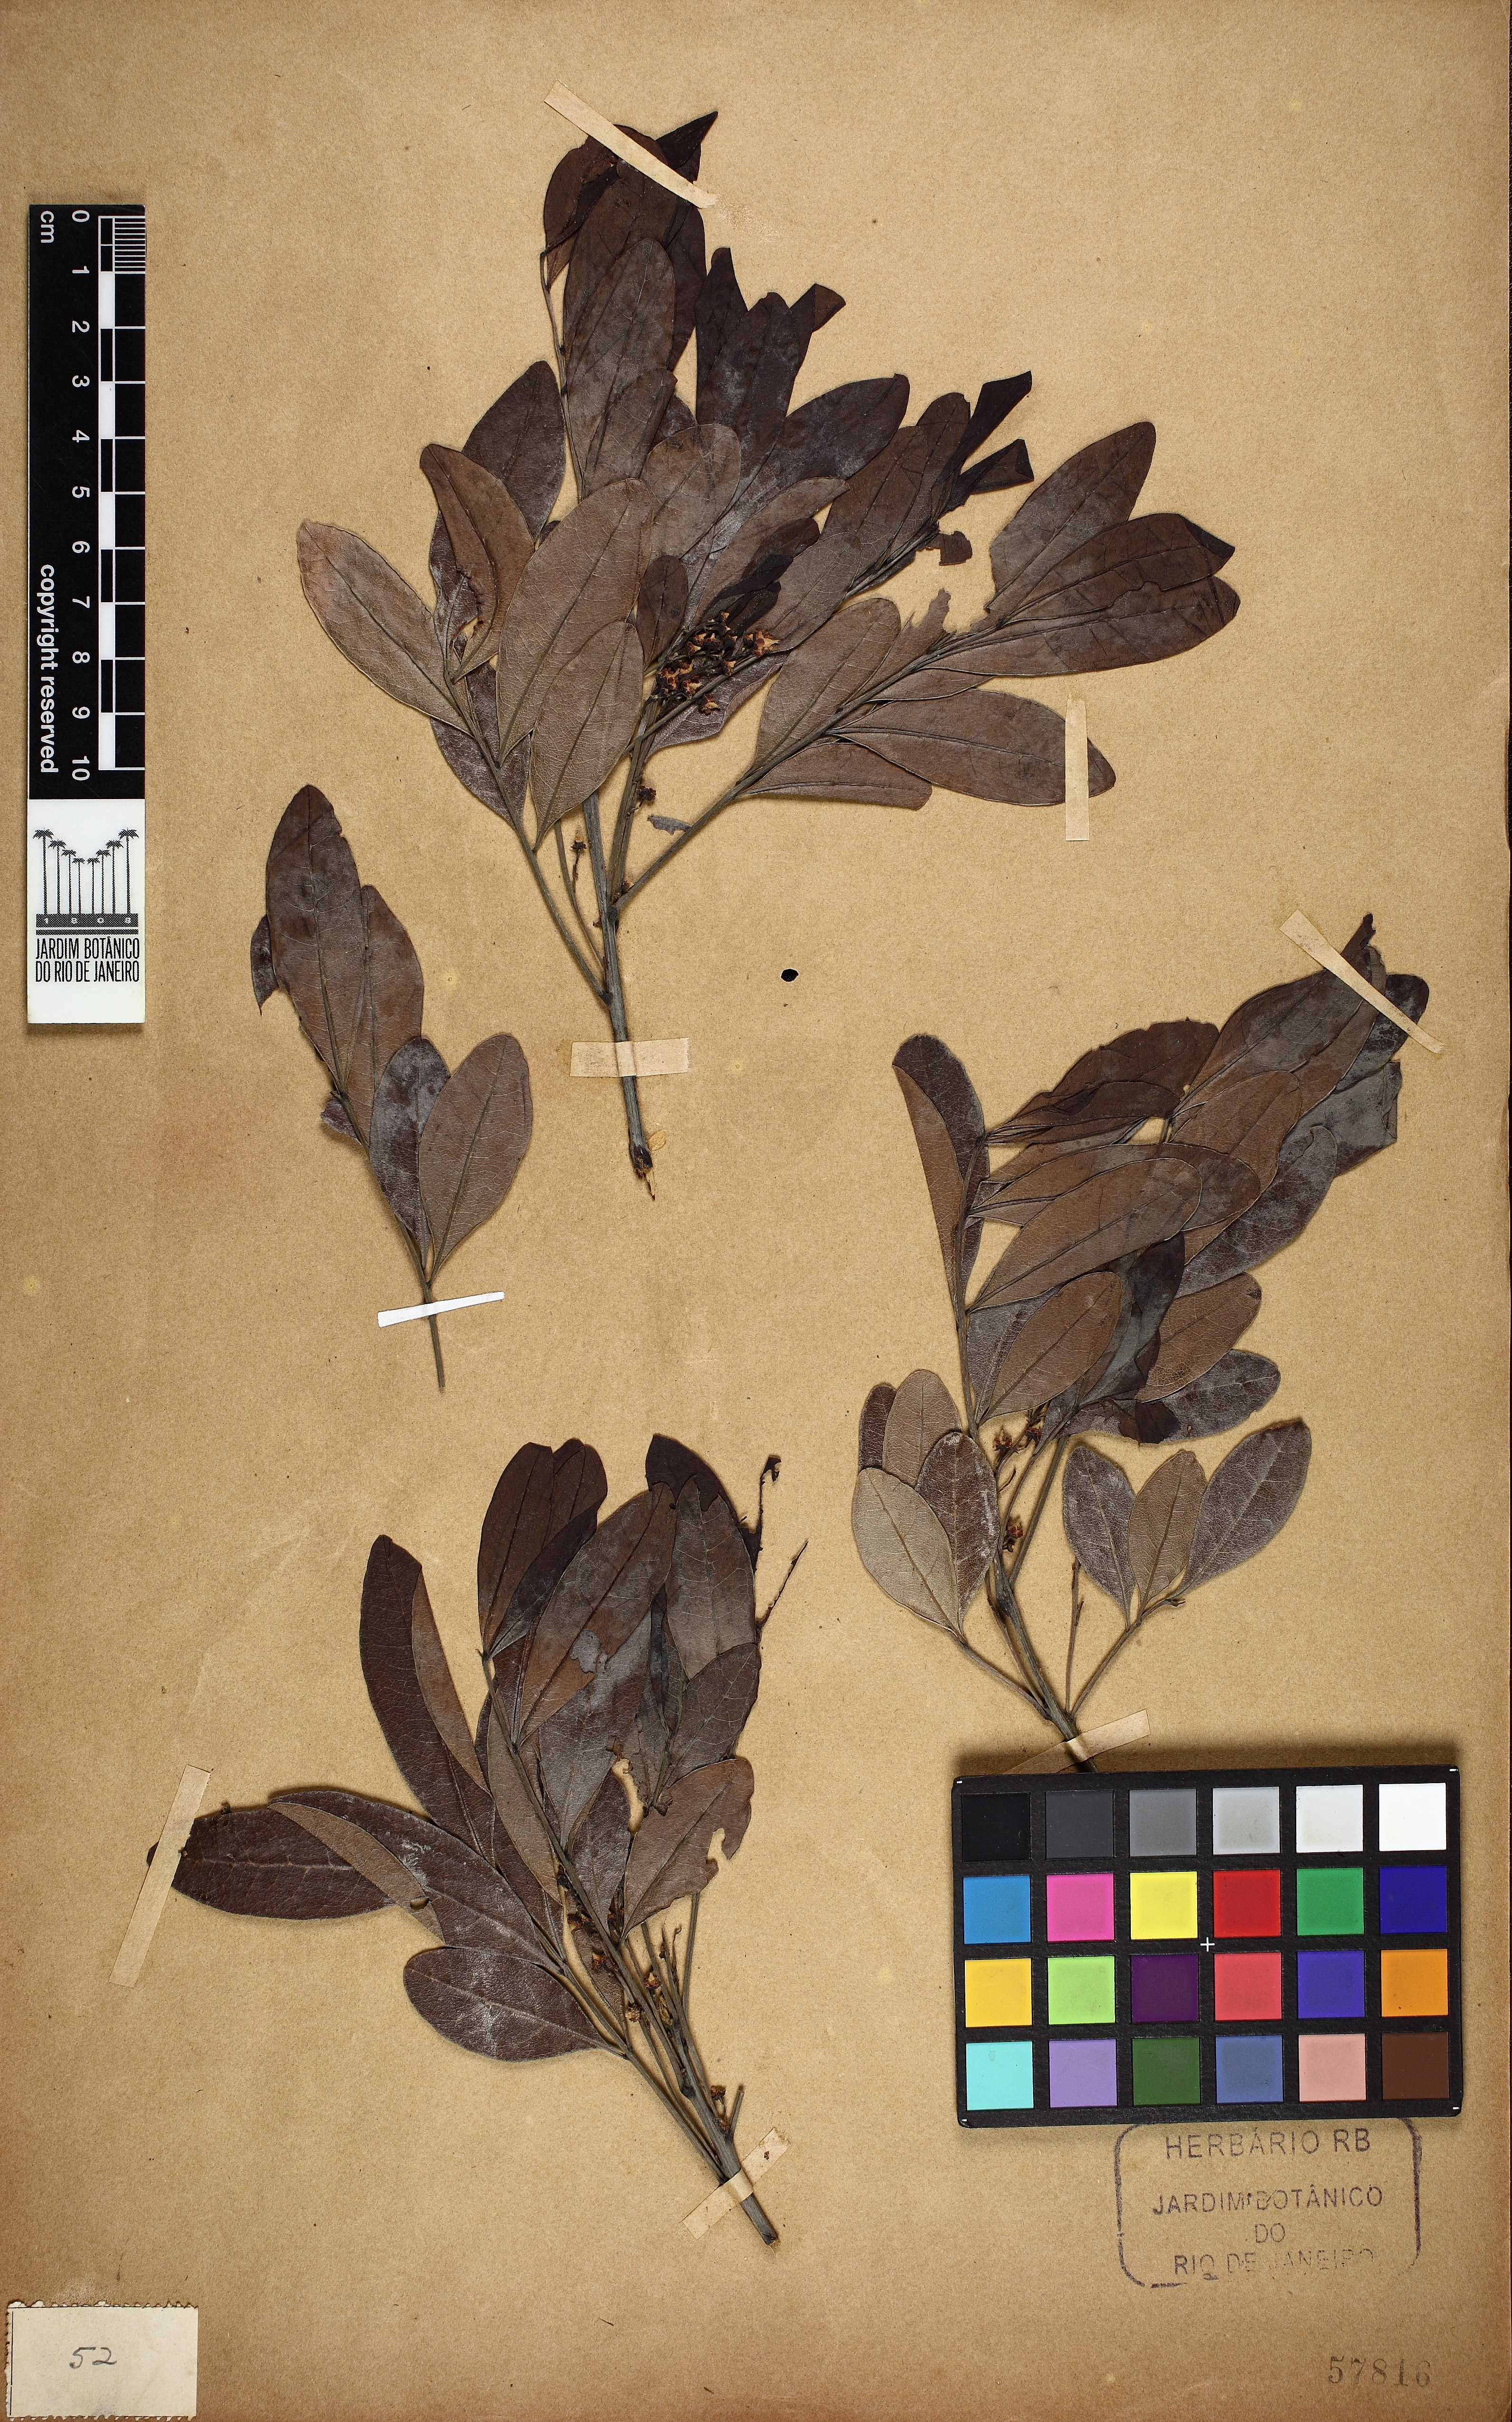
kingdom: Plantae
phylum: Tracheophyta
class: Magnoliopsida
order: Sapindales
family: Sapindaceae
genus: Matayba
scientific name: Matayba elaeagnoides
